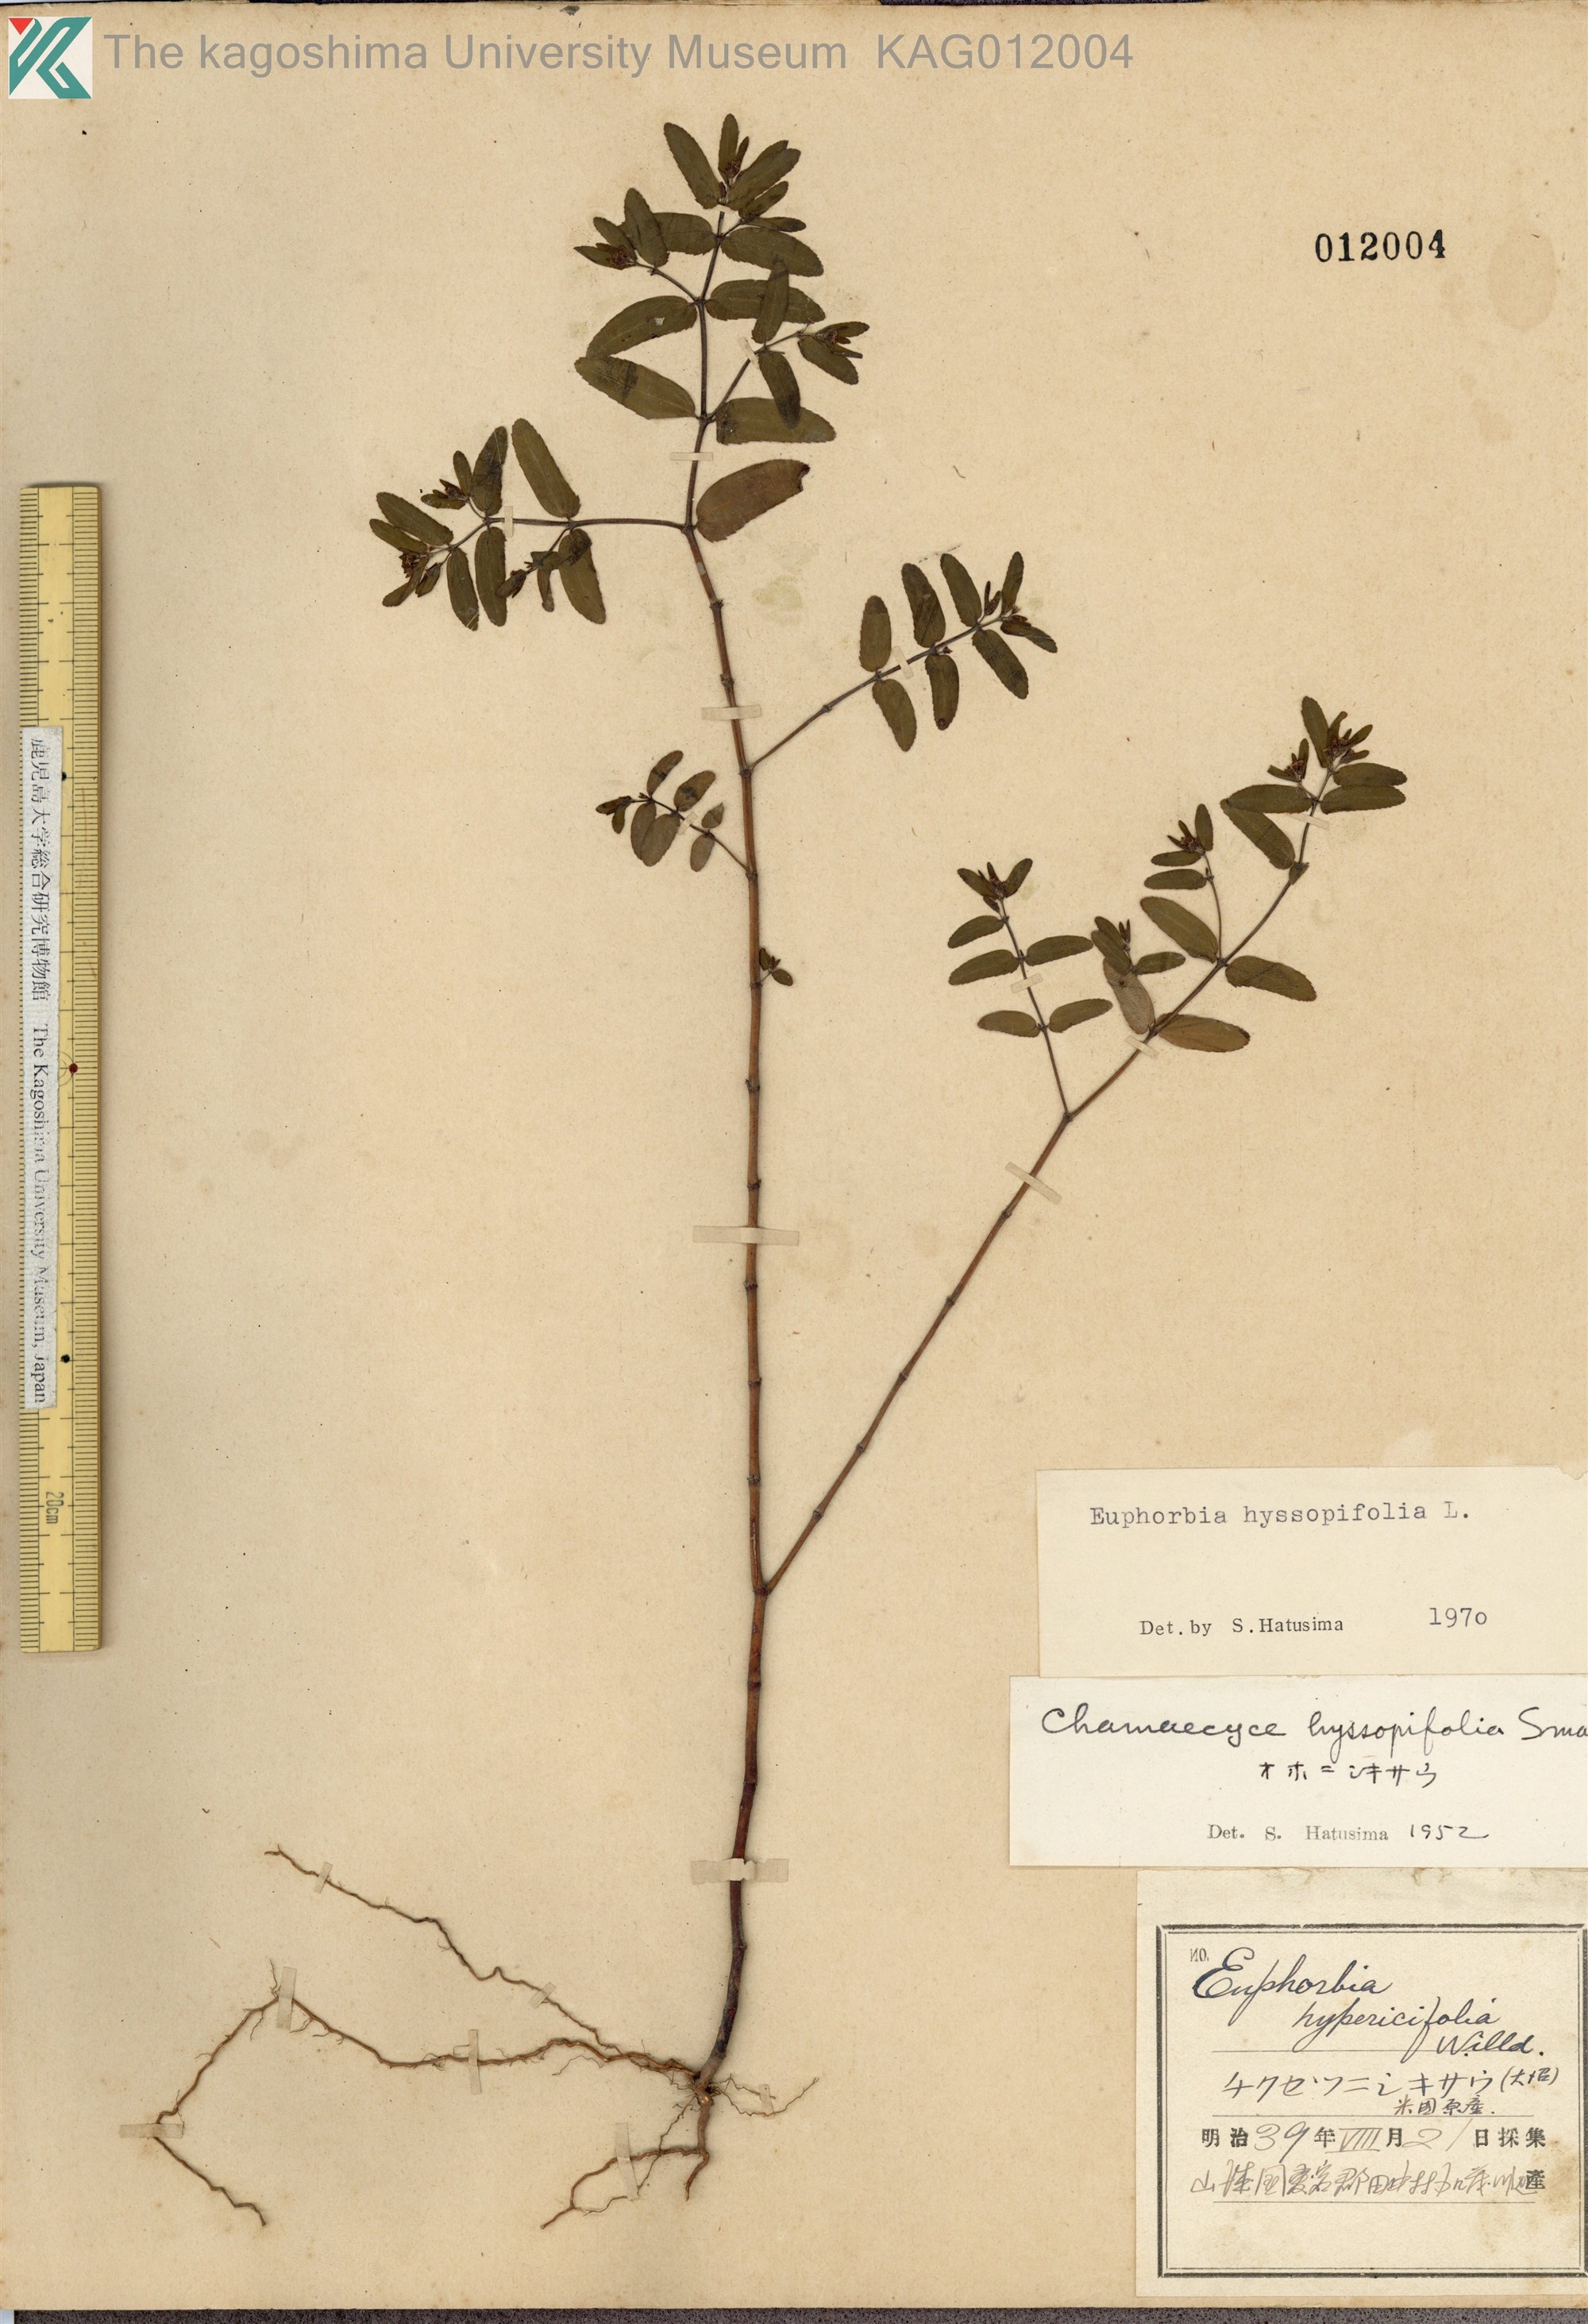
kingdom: Plantae
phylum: Tracheophyta
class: Magnoliopsida
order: Malpighiales
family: Euphorbiaceae
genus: Euphorbia
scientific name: Euphorbia hyssopifolia
